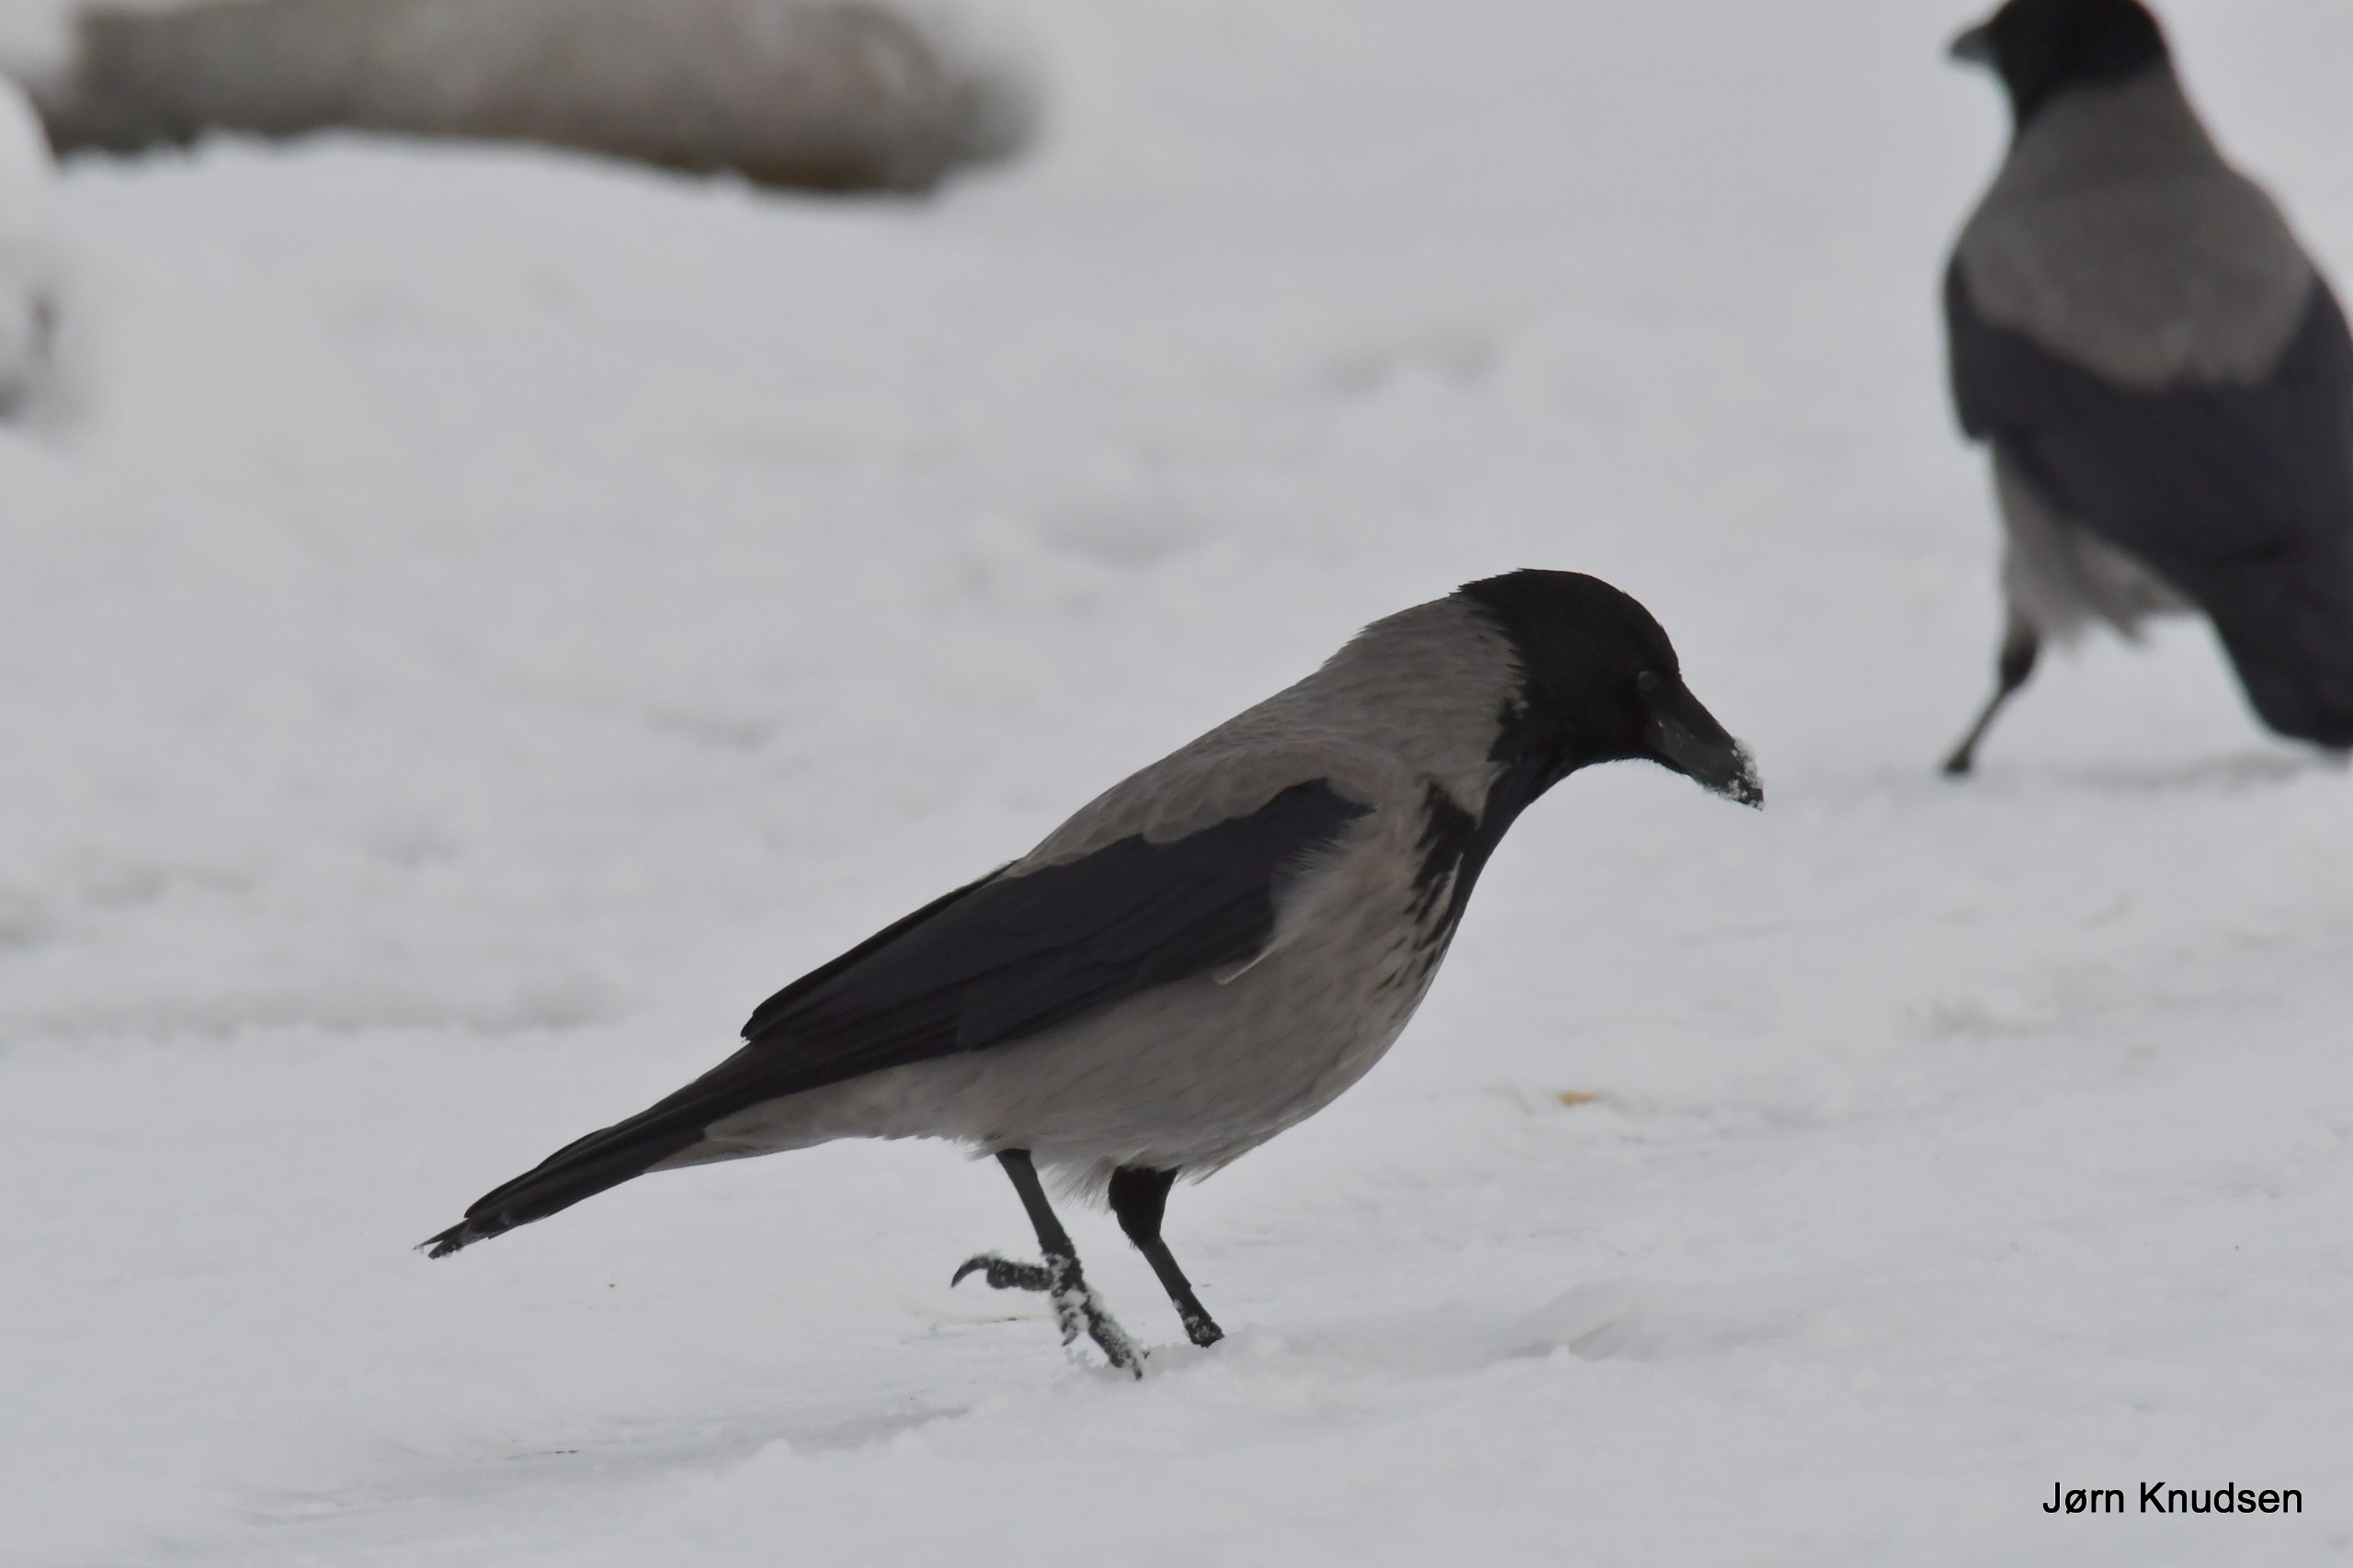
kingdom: Animalia
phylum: Chordata
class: Aves
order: Passeriformes
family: Corvidae
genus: Corvus
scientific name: Corvus cornix
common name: Gråkrage
